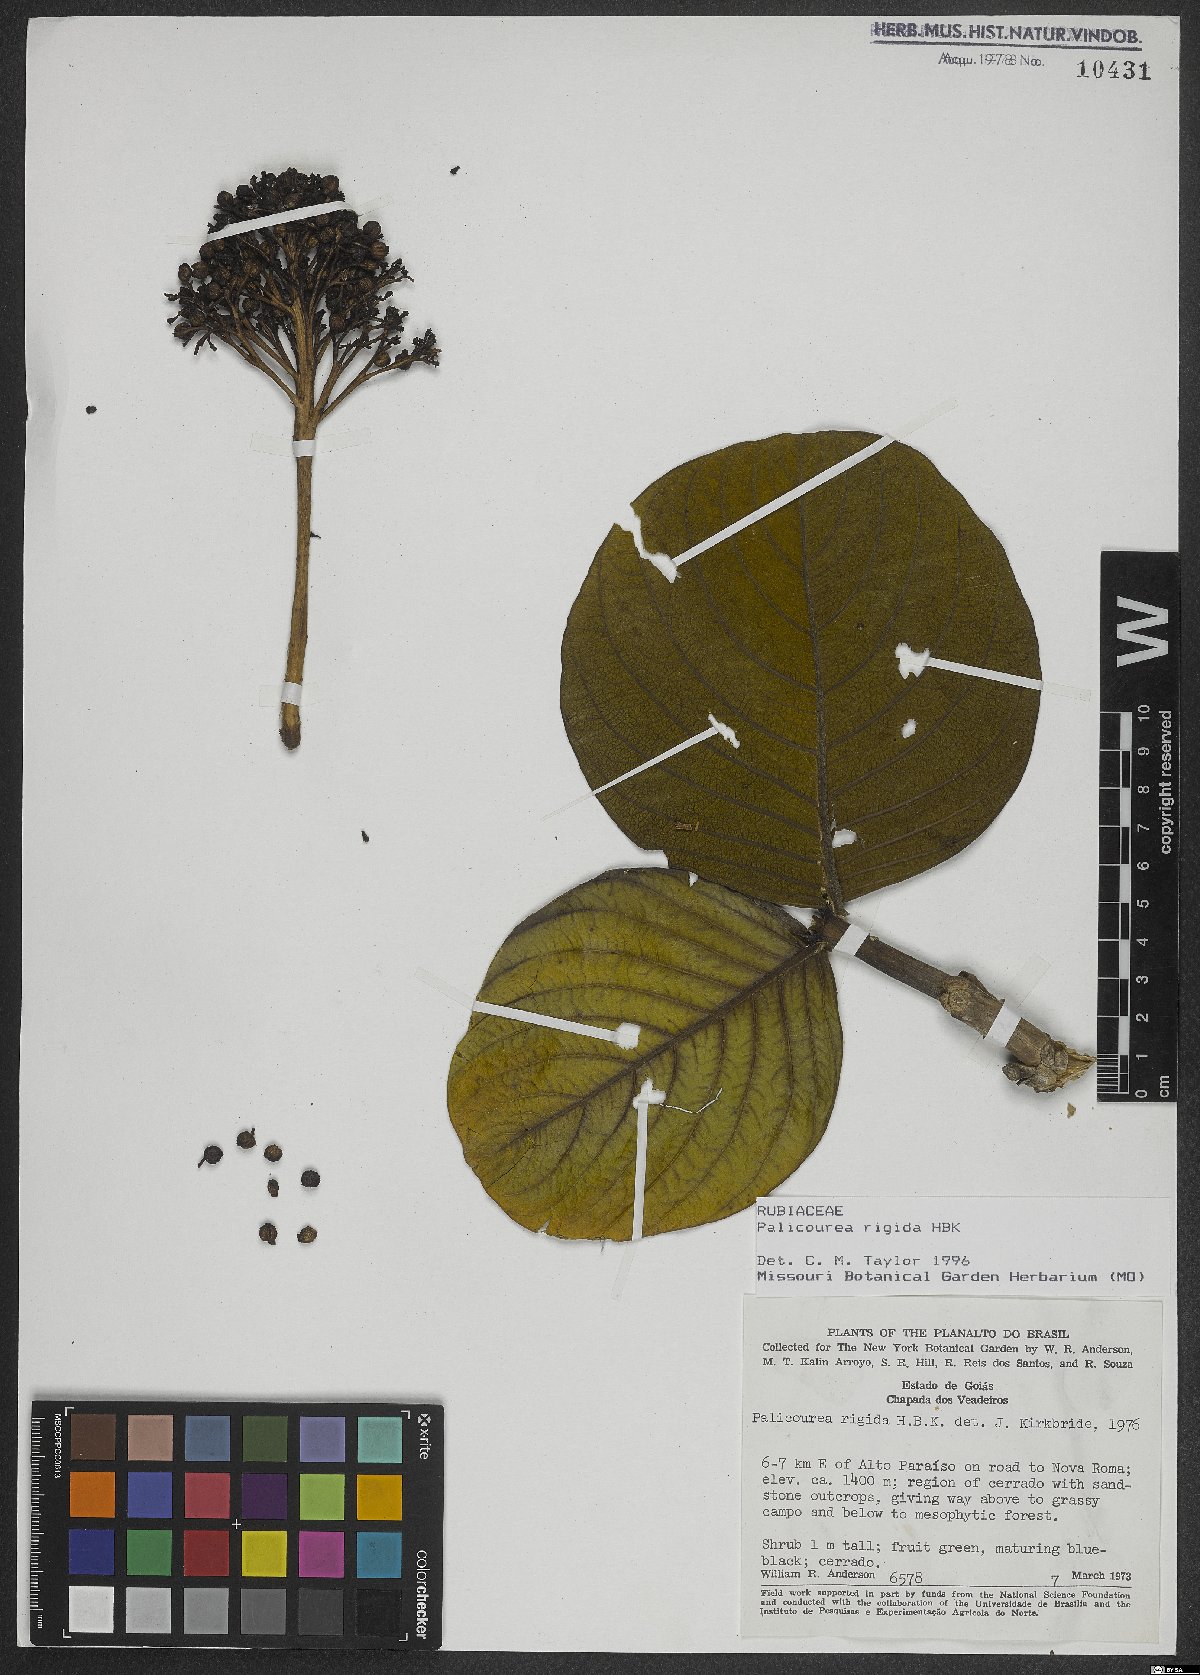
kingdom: Plantae
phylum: Tracheophyta
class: Magnoliopsida
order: Gentianales
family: Rubiaceae
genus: Palicourea
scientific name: Palicourea rigida
